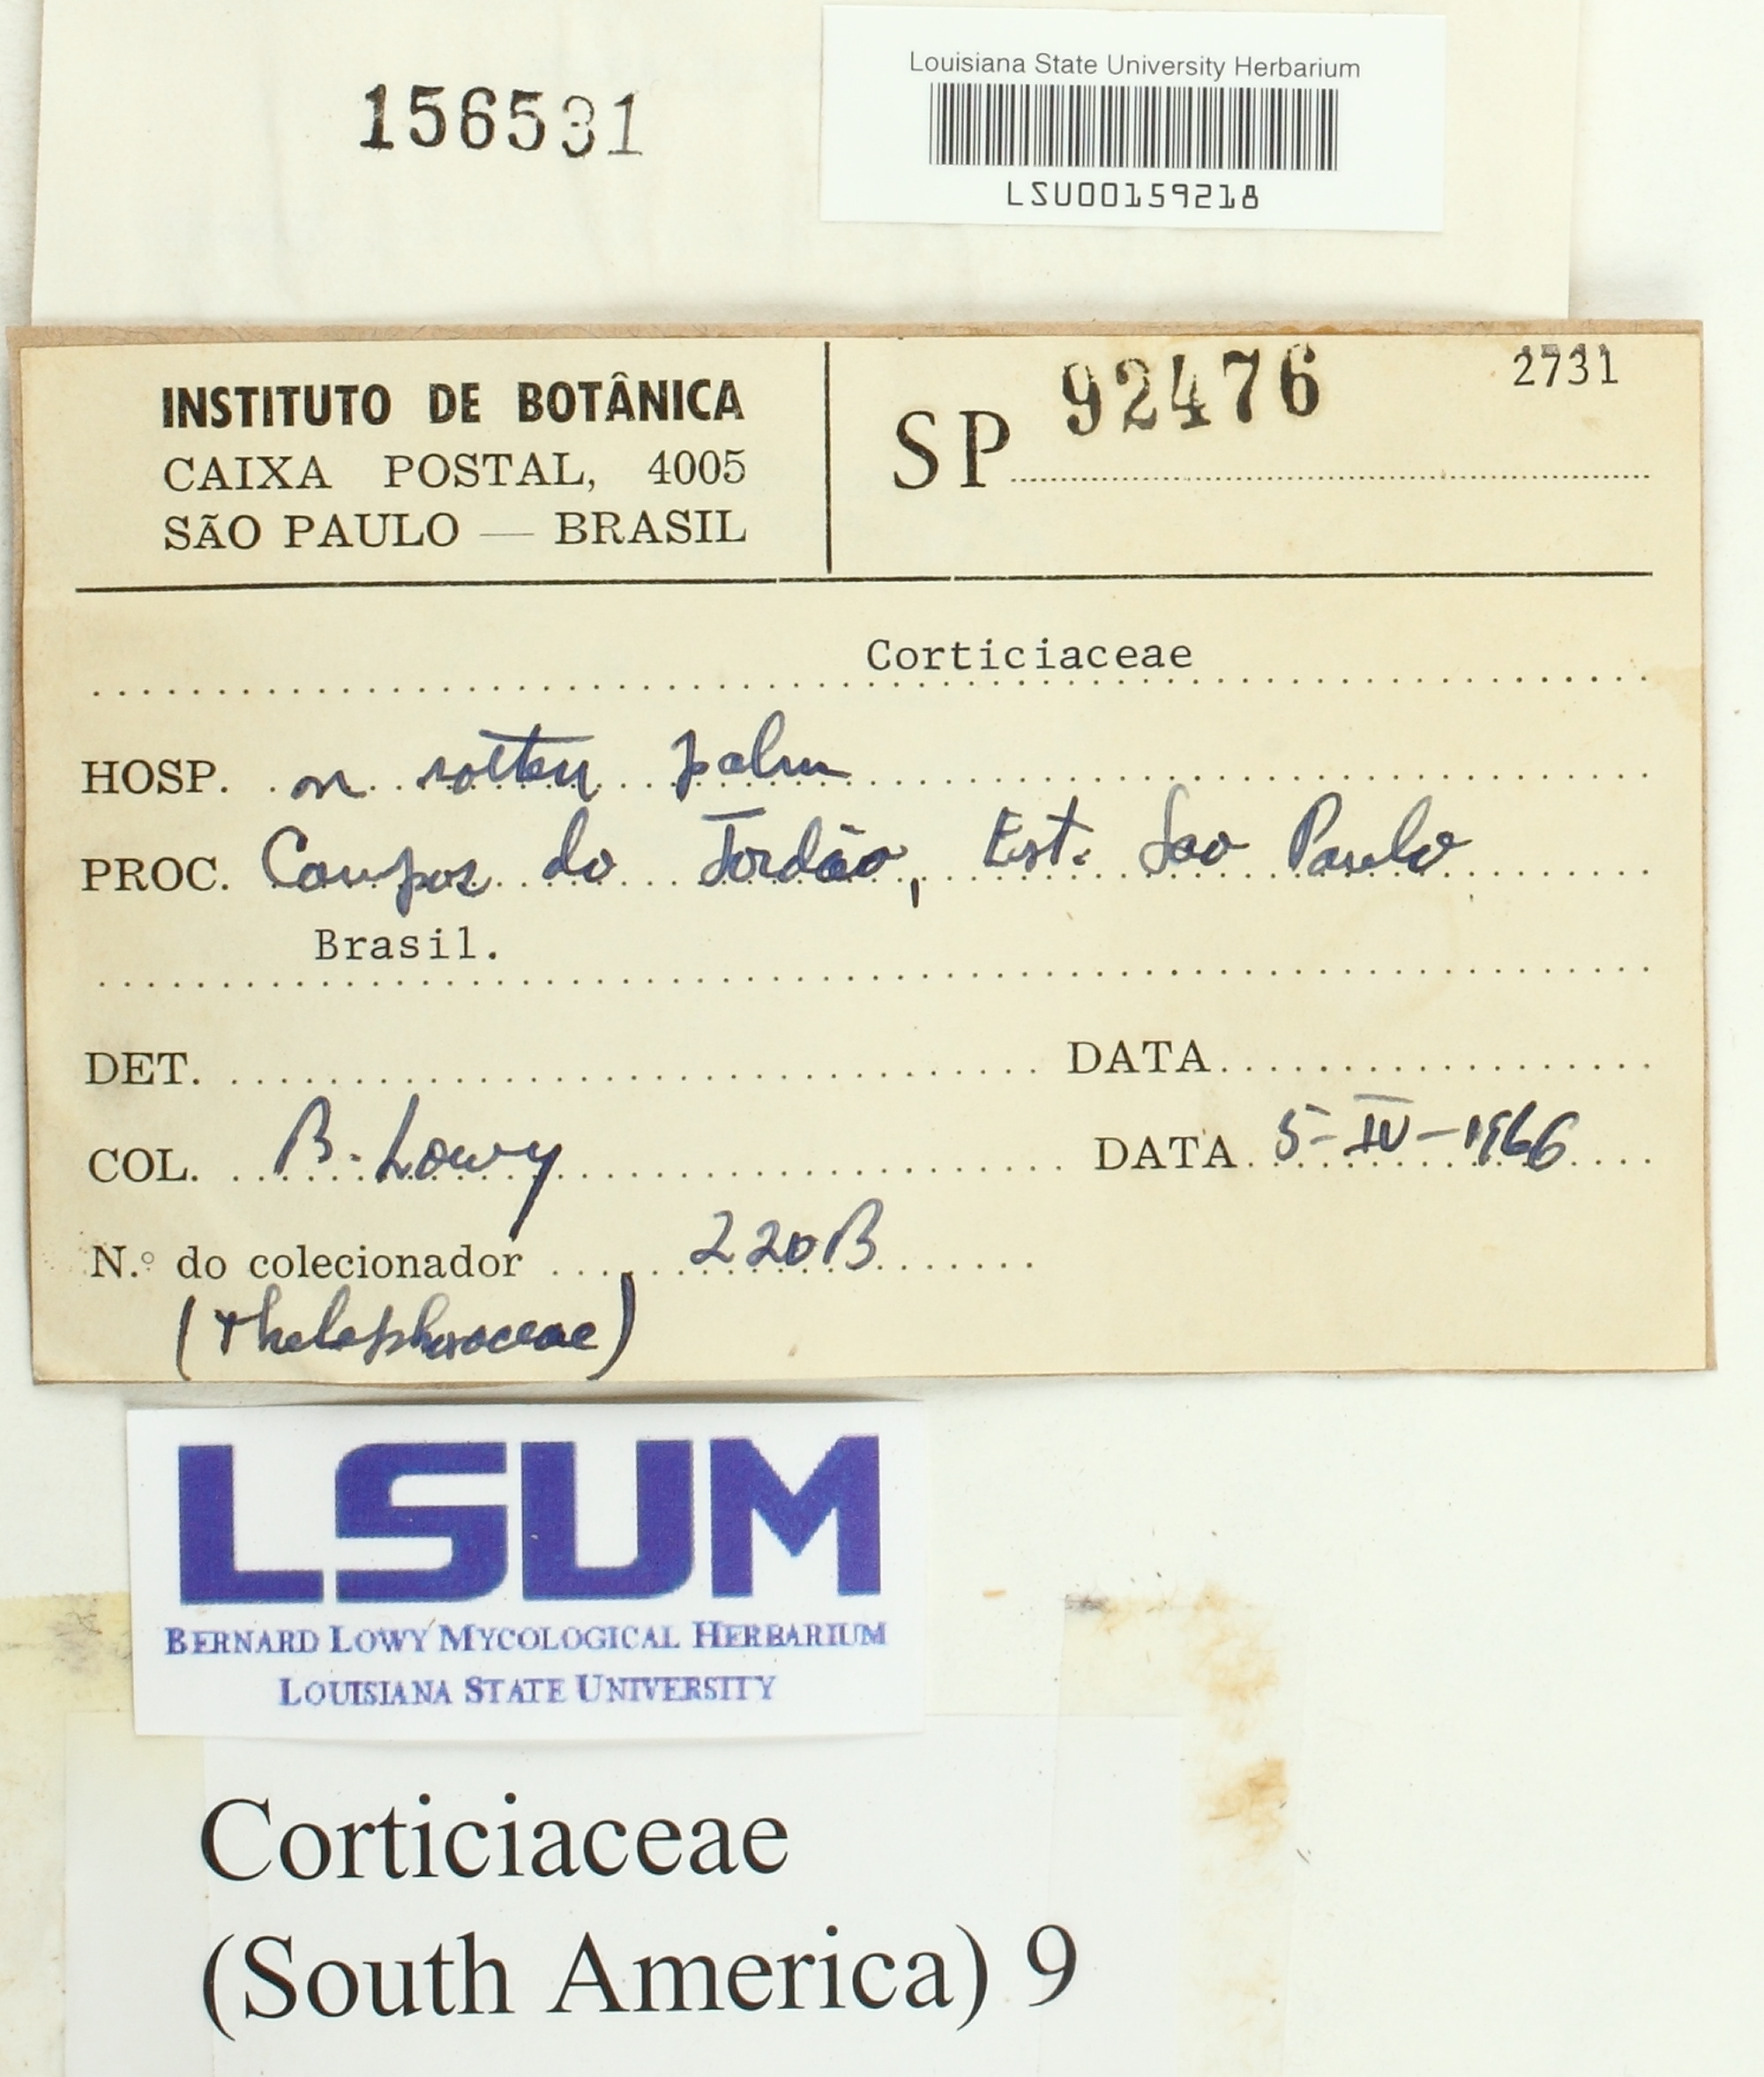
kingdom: Fungi
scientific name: Fungi
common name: Fungi
